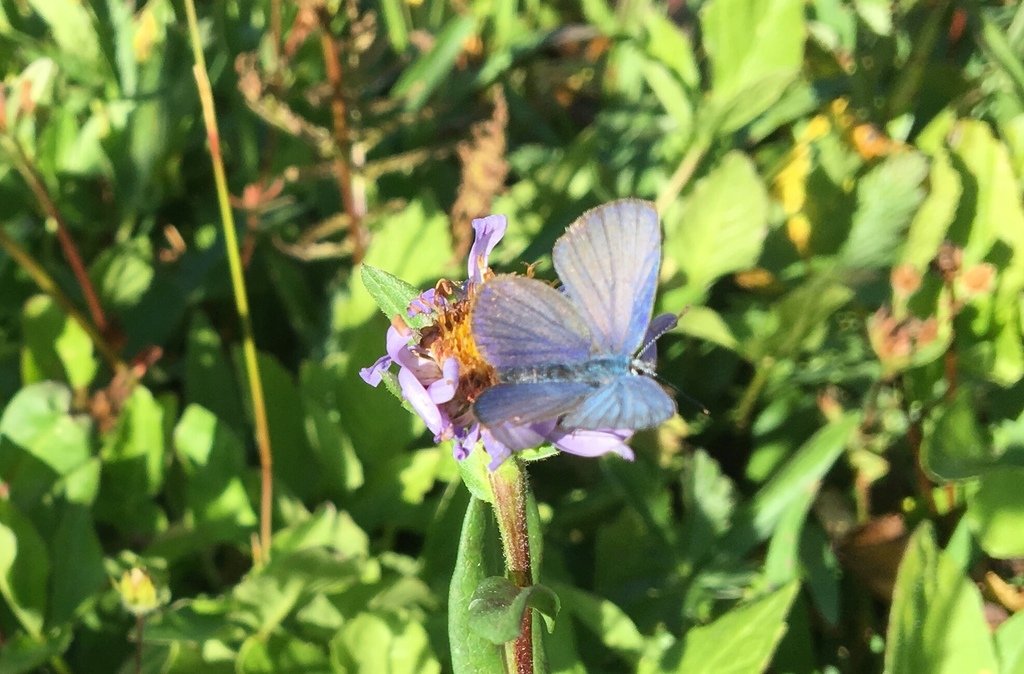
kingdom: Animalia
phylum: Arthropoda
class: Insecta
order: Lepidoptera
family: Lycaenidae
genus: Lycaeides
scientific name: Lycaeides anna
